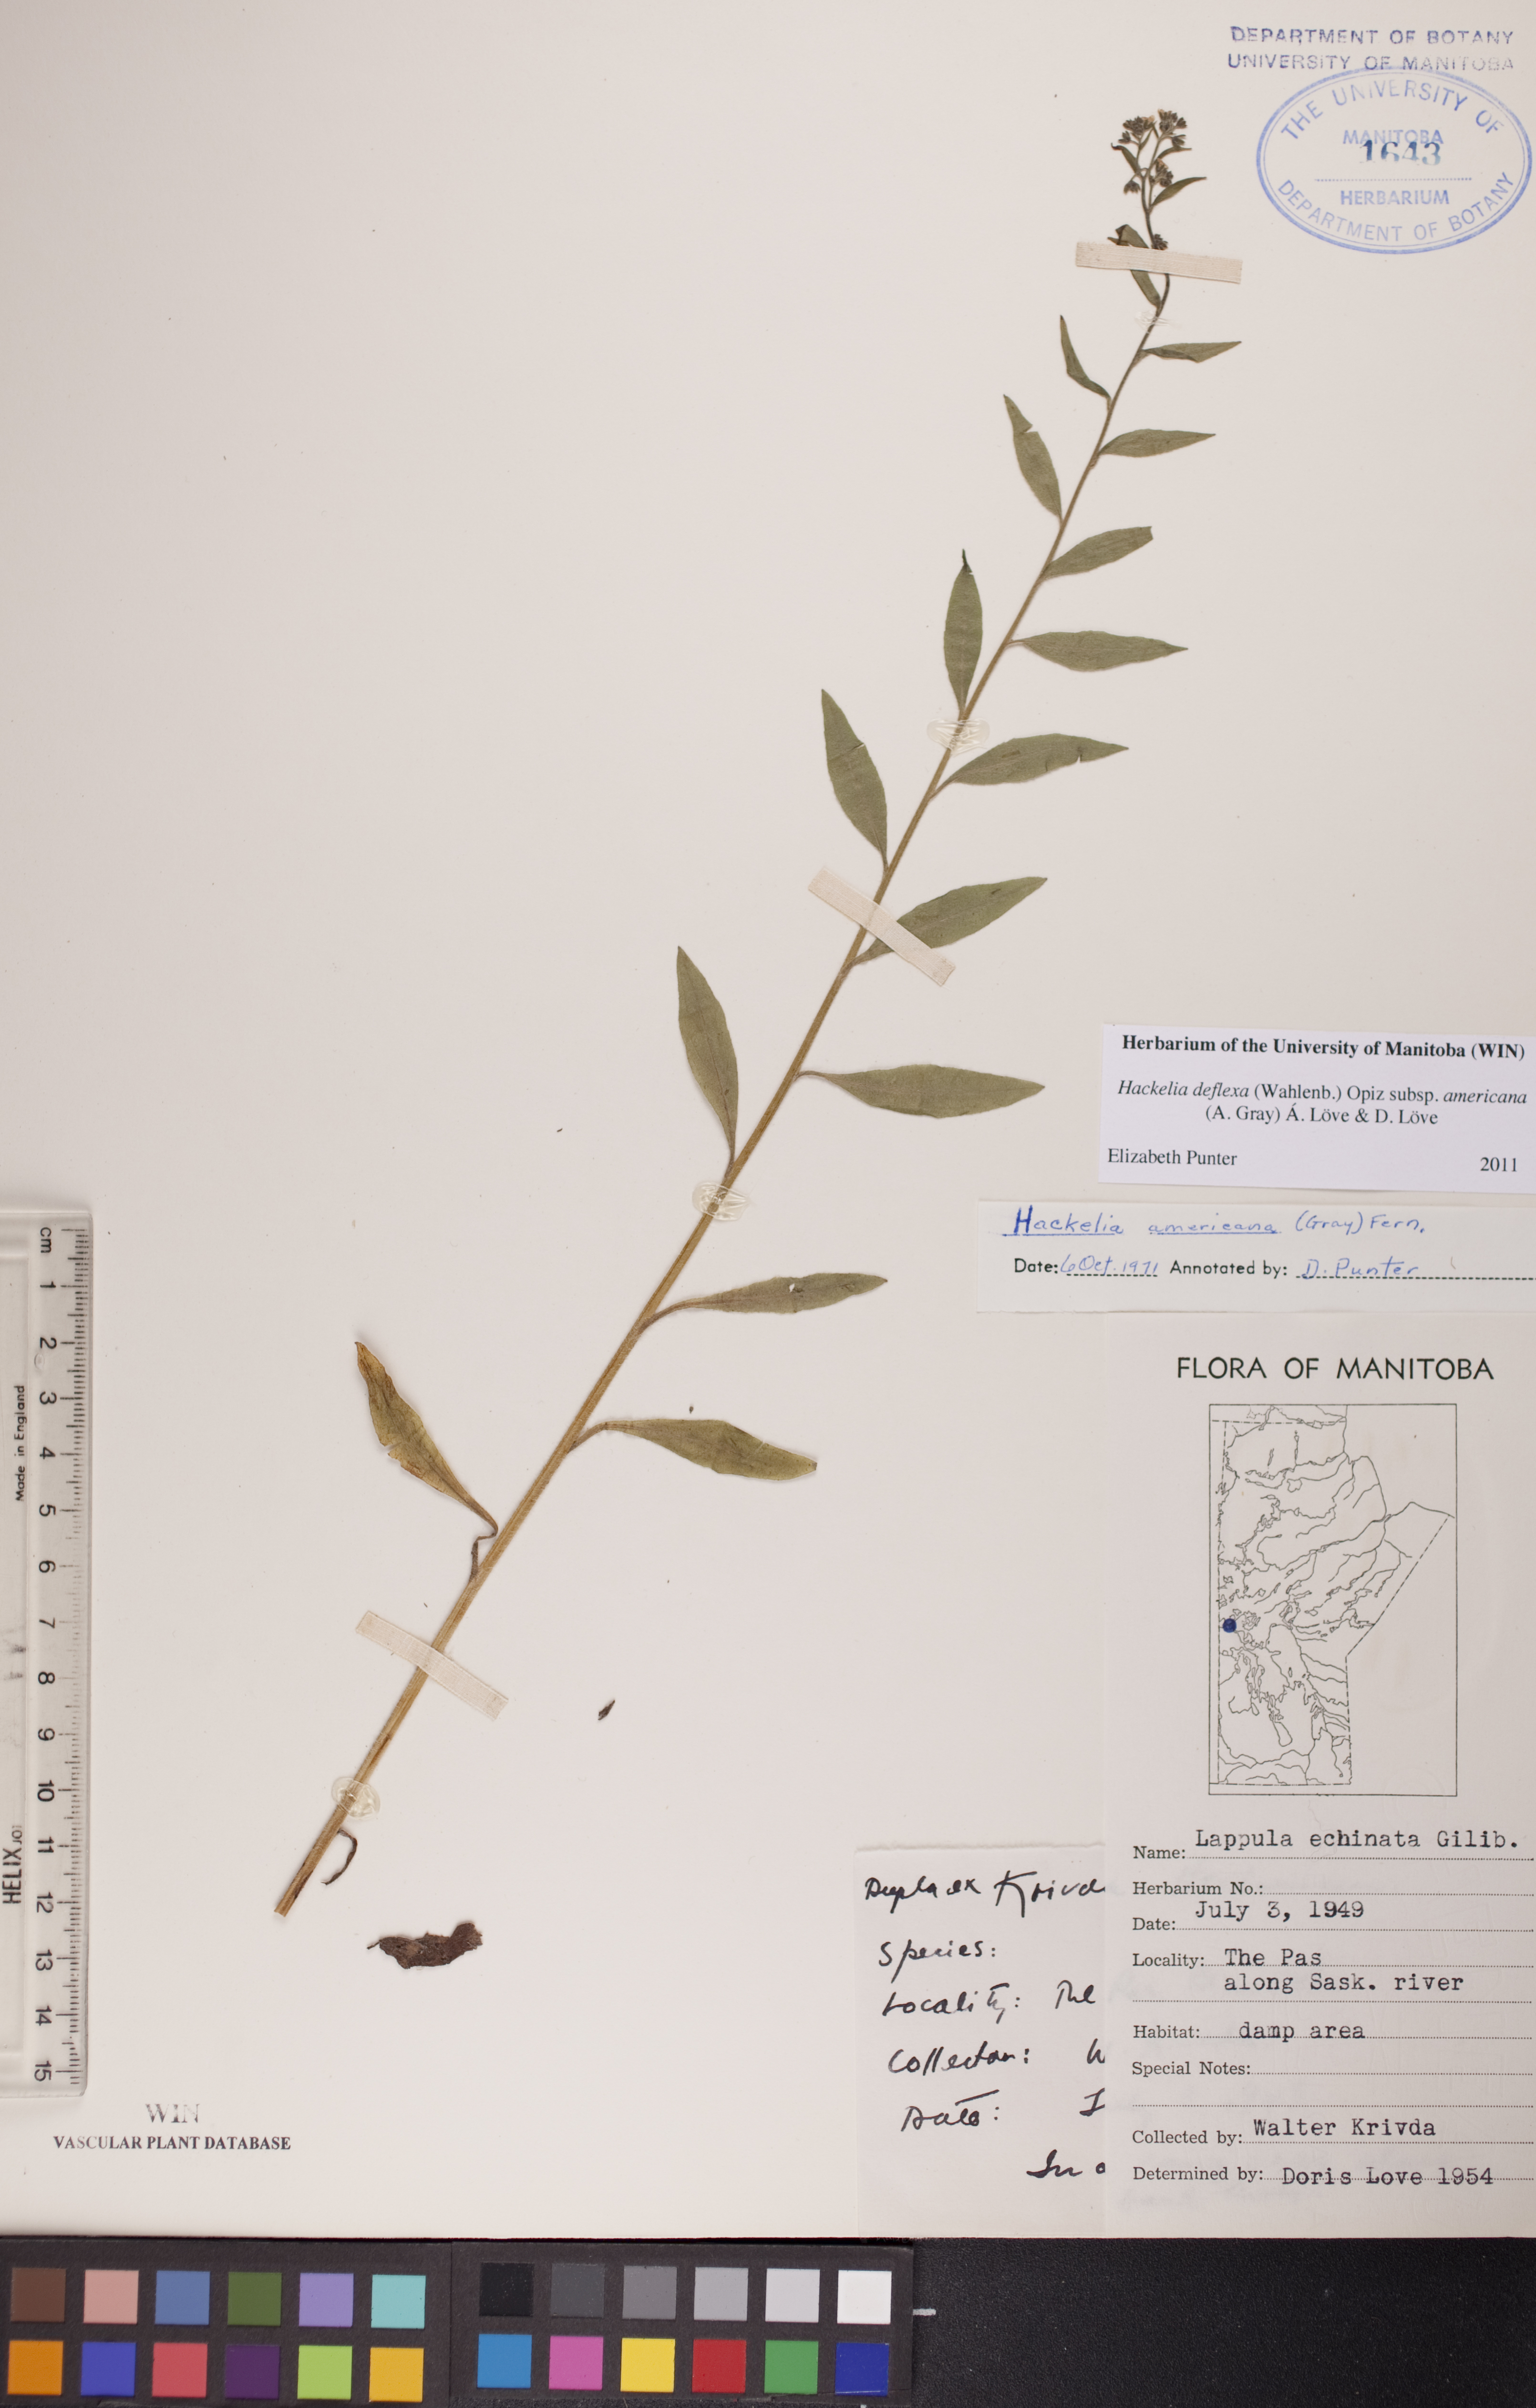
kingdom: Plantae
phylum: Tracheophyta
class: Magnoliopsida
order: Boraginales
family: Boraginaceae
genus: Hackelia
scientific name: Hackelia deflexa
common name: Nodding stickseed
